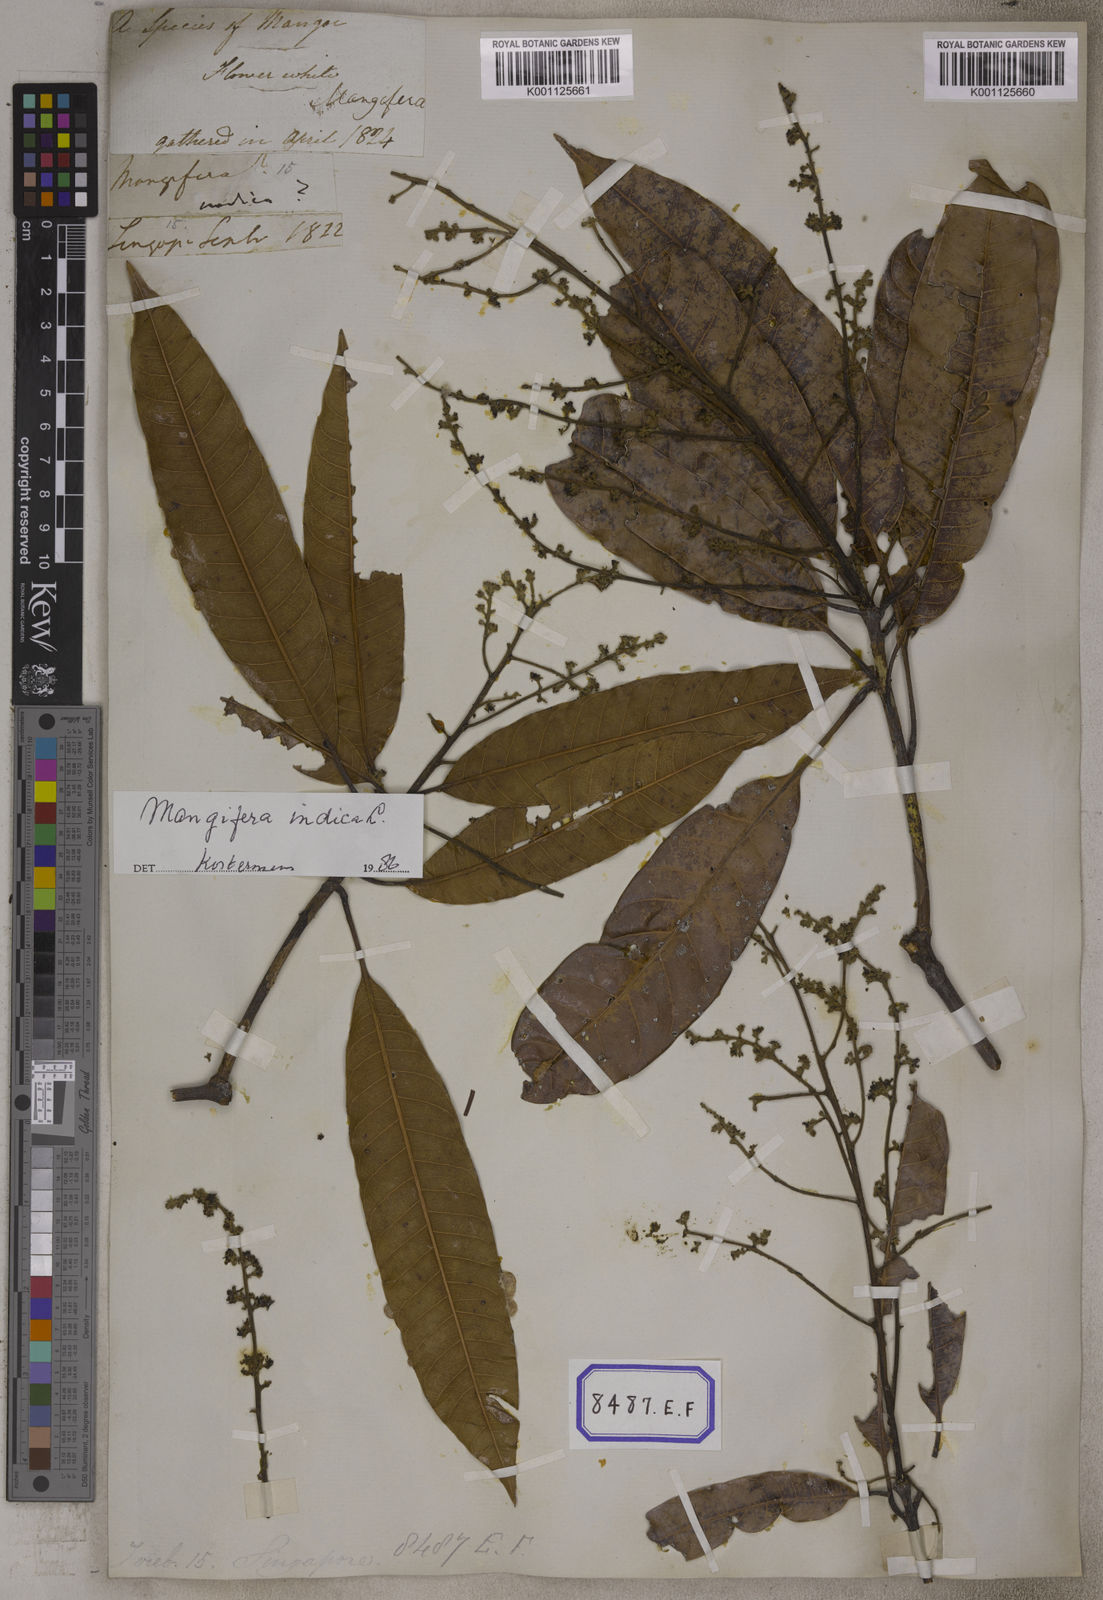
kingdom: Plantae
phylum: Tracheophyta
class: Magnoliopsida
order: Sapindales
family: Anacardiaceae
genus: Mangifera
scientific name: Mangifera indica
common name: Mango
